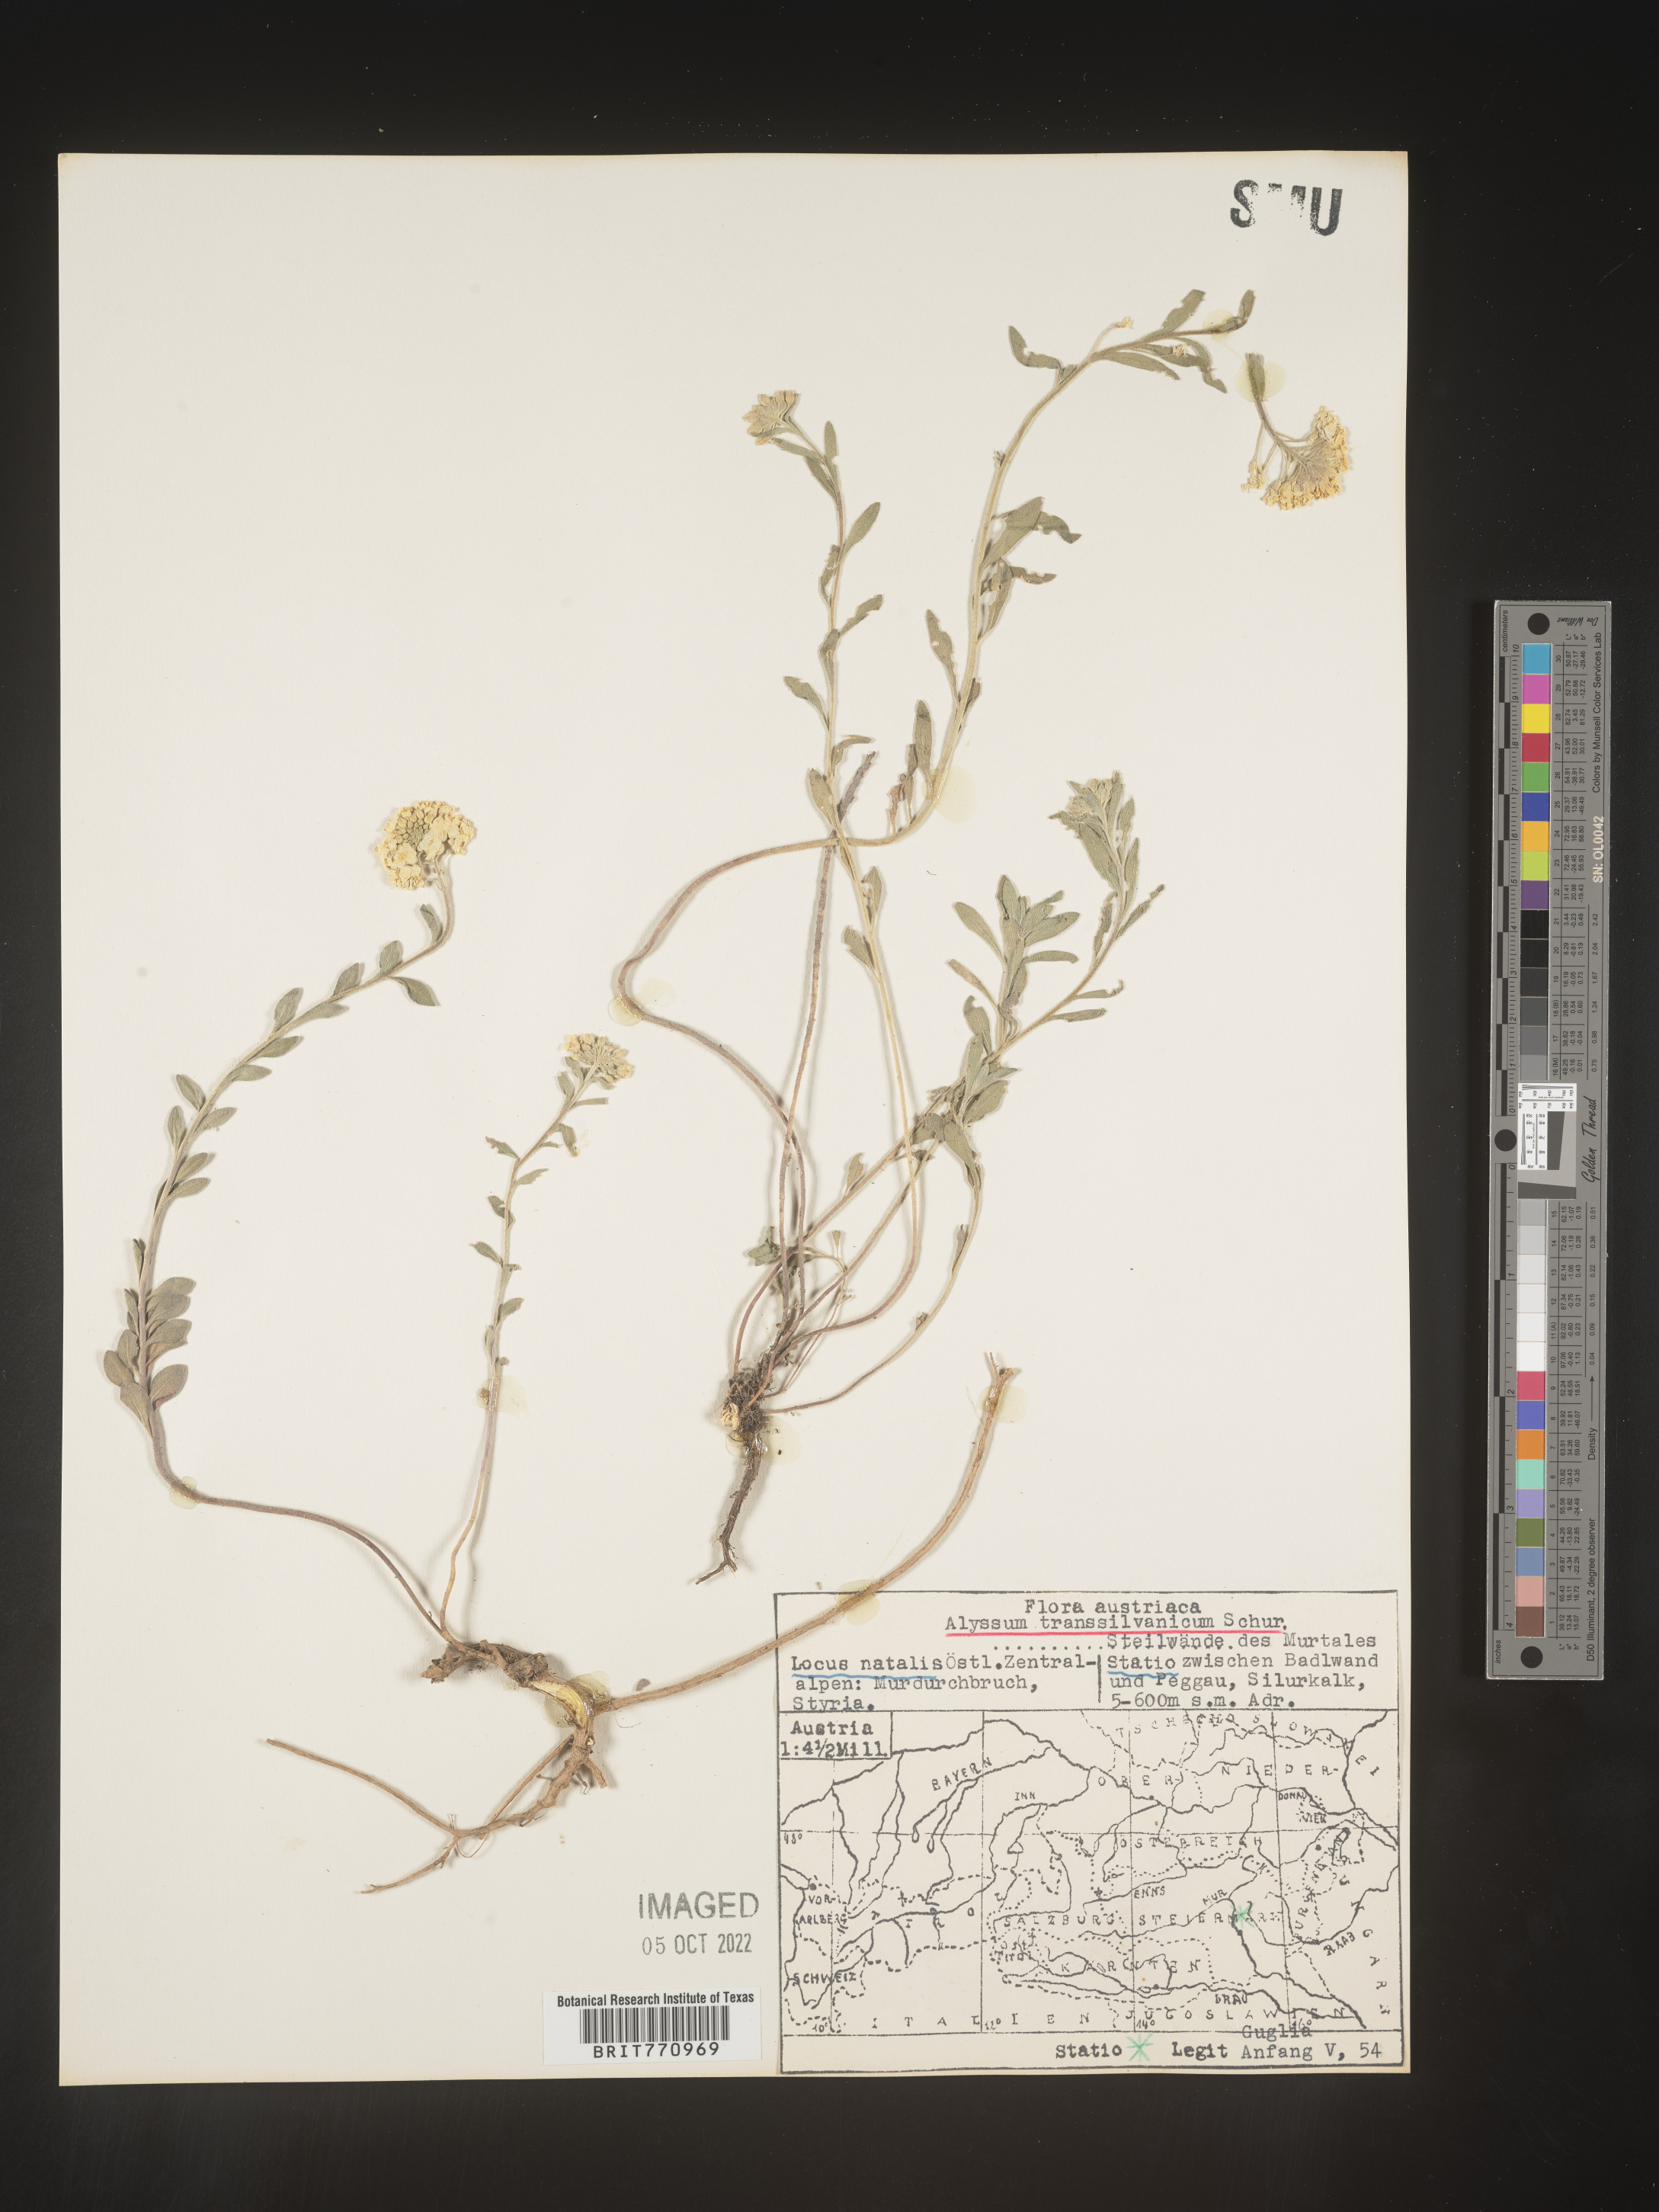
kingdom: Plantae
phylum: Tracheophyta
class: Magnoliopsida
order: Brassicales
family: Brassicaceae
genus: Alyssum
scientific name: Alyssum
